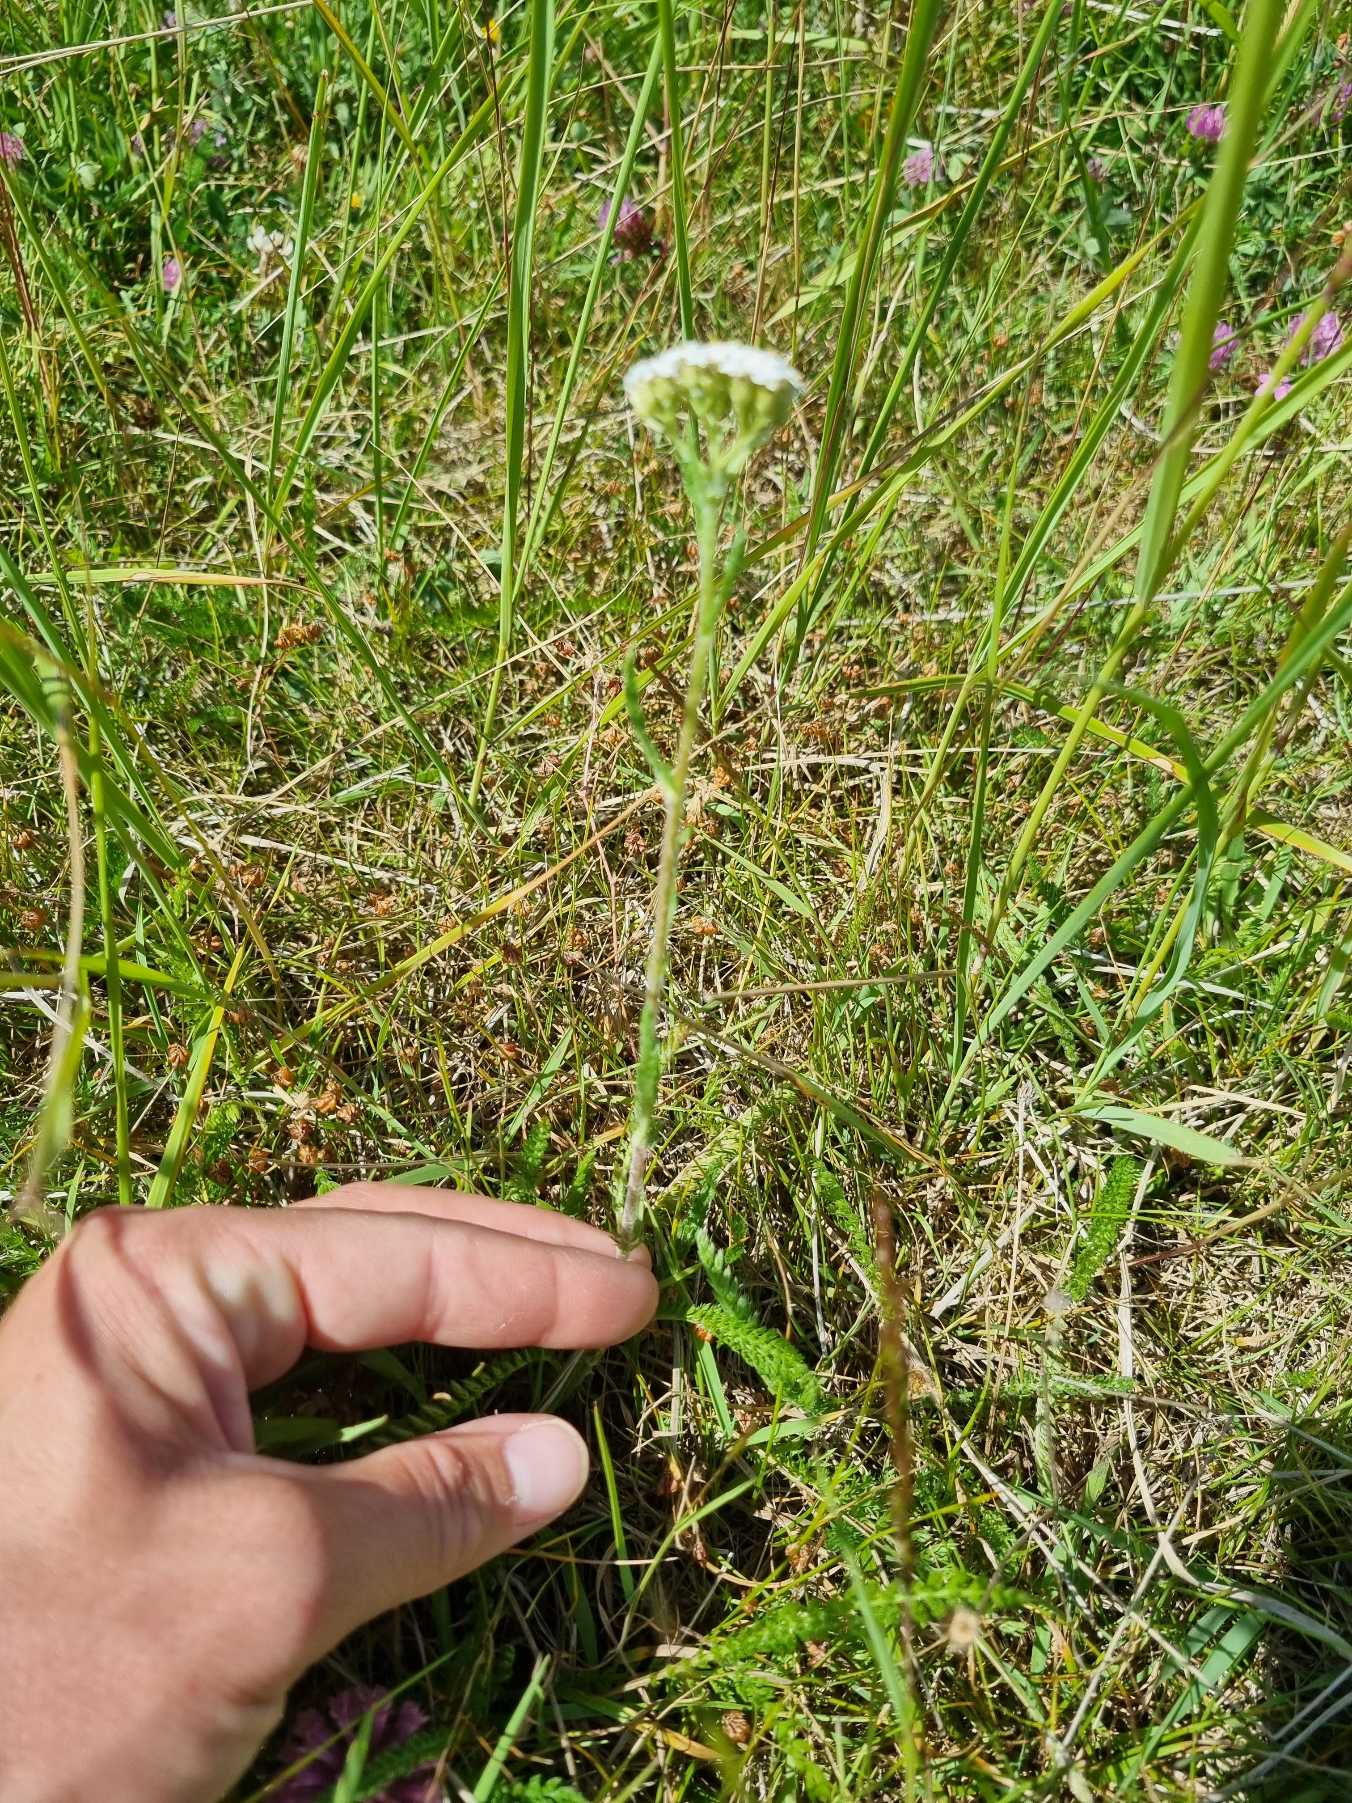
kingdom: Plantae
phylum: Tracheophyta
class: Magnoliopsida
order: Asterales
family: Asteraceae
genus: Achillea
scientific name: Achillea millefolium
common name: Almindelig røllike
